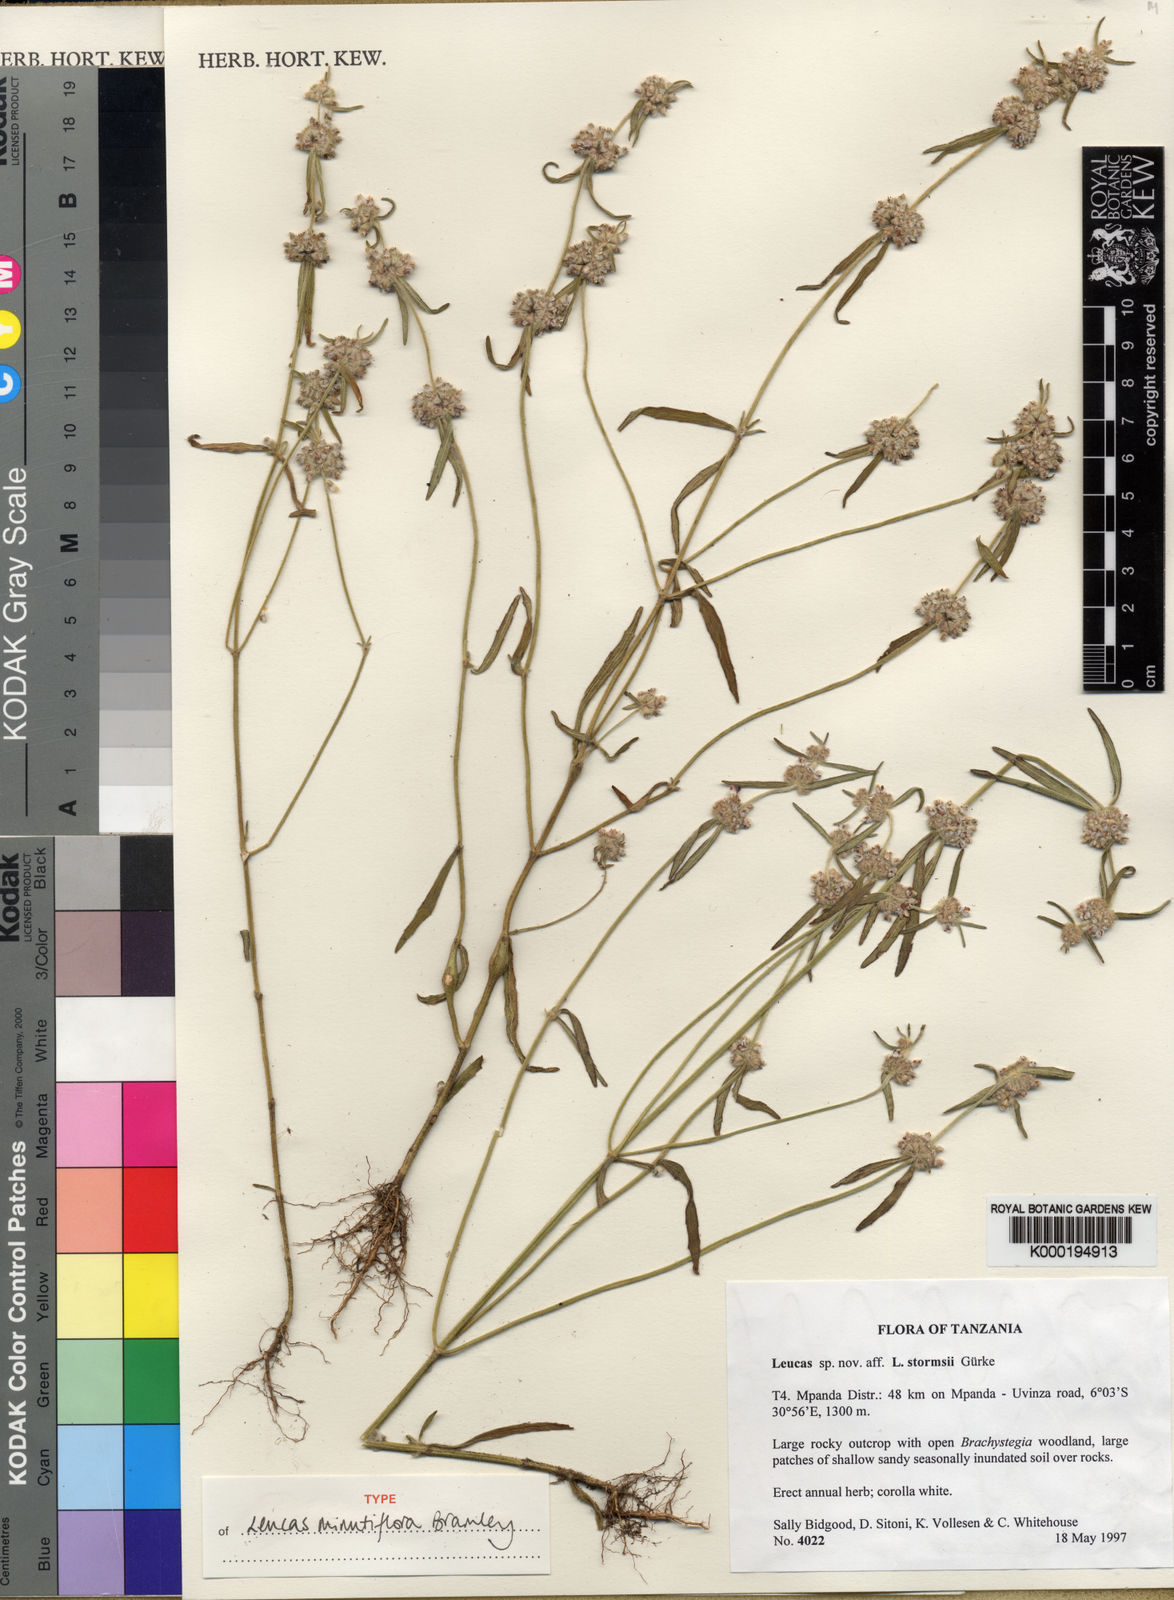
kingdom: Plantae
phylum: Tracheophyta
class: Magnoliopsida
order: Lamiales
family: Lamiaceae
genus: Leucas
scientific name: Leucas minutiflora
